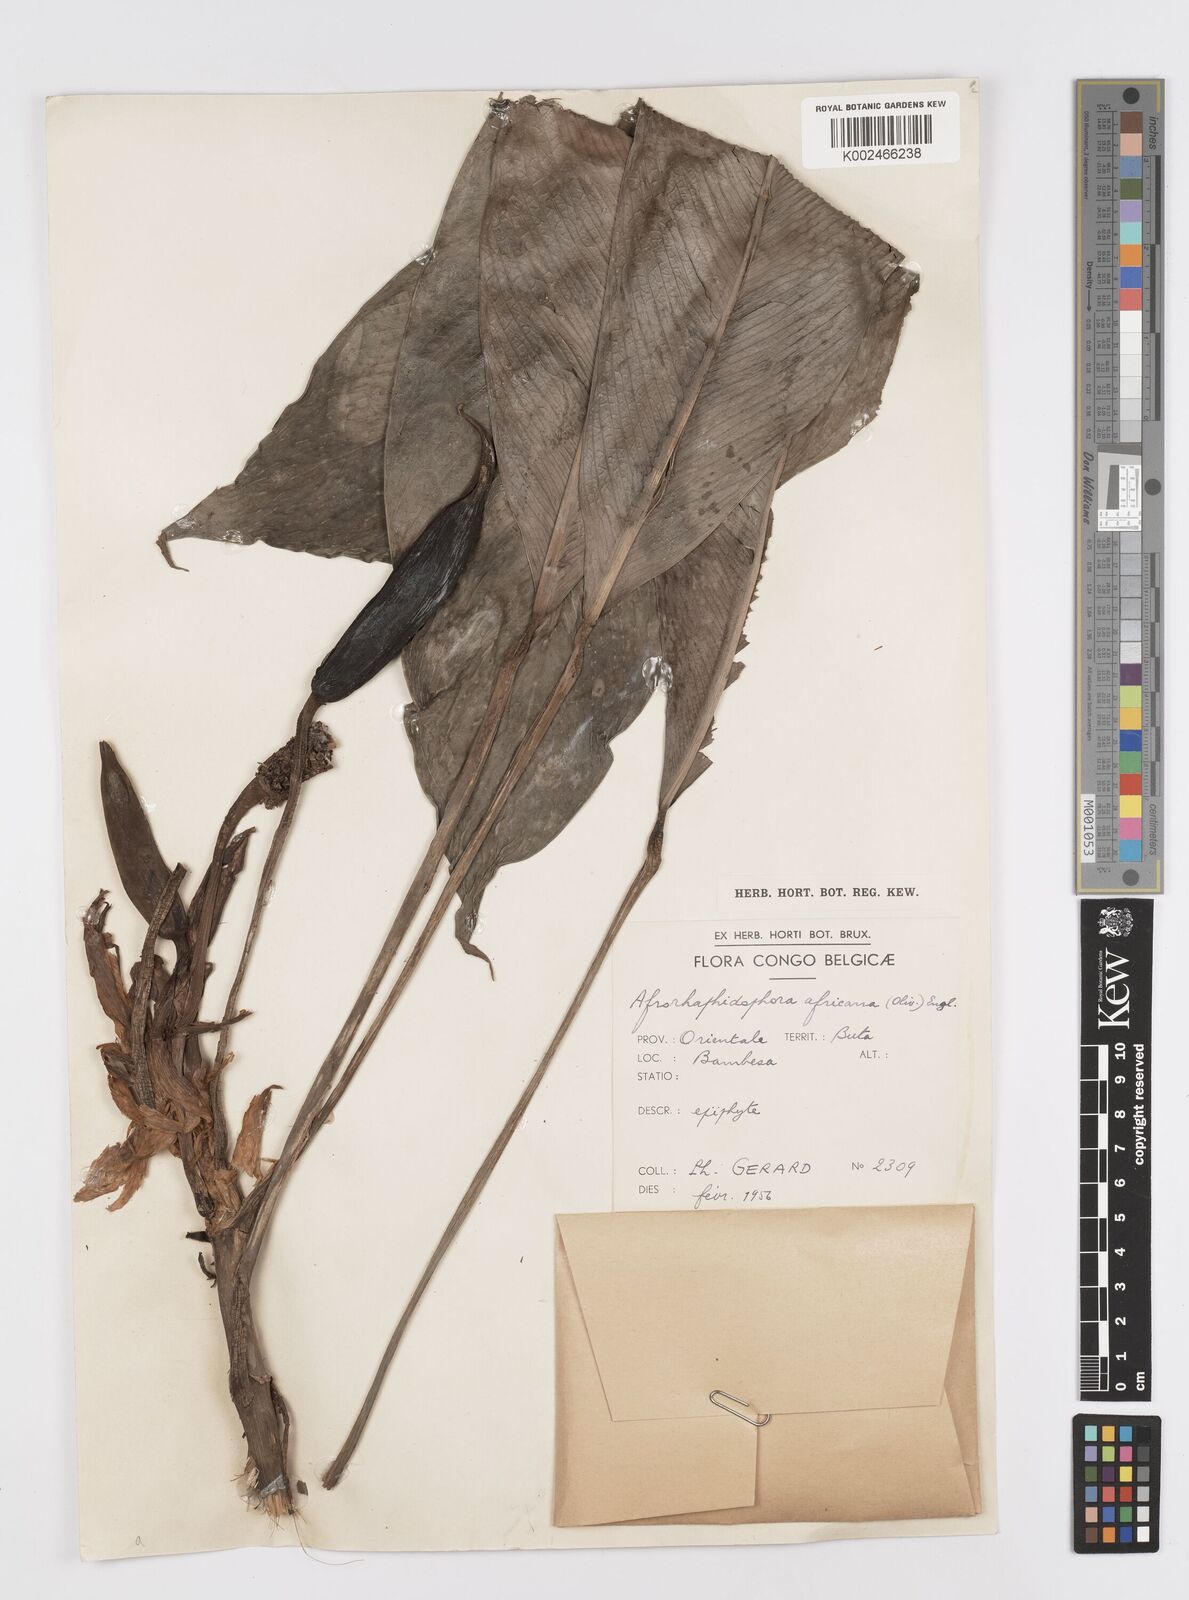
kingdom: Plantae
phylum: Tracheophyta
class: Liliopsida
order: Alismatales
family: Araceae
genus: Rhaphidophora
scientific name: Rhaphidophora africana
